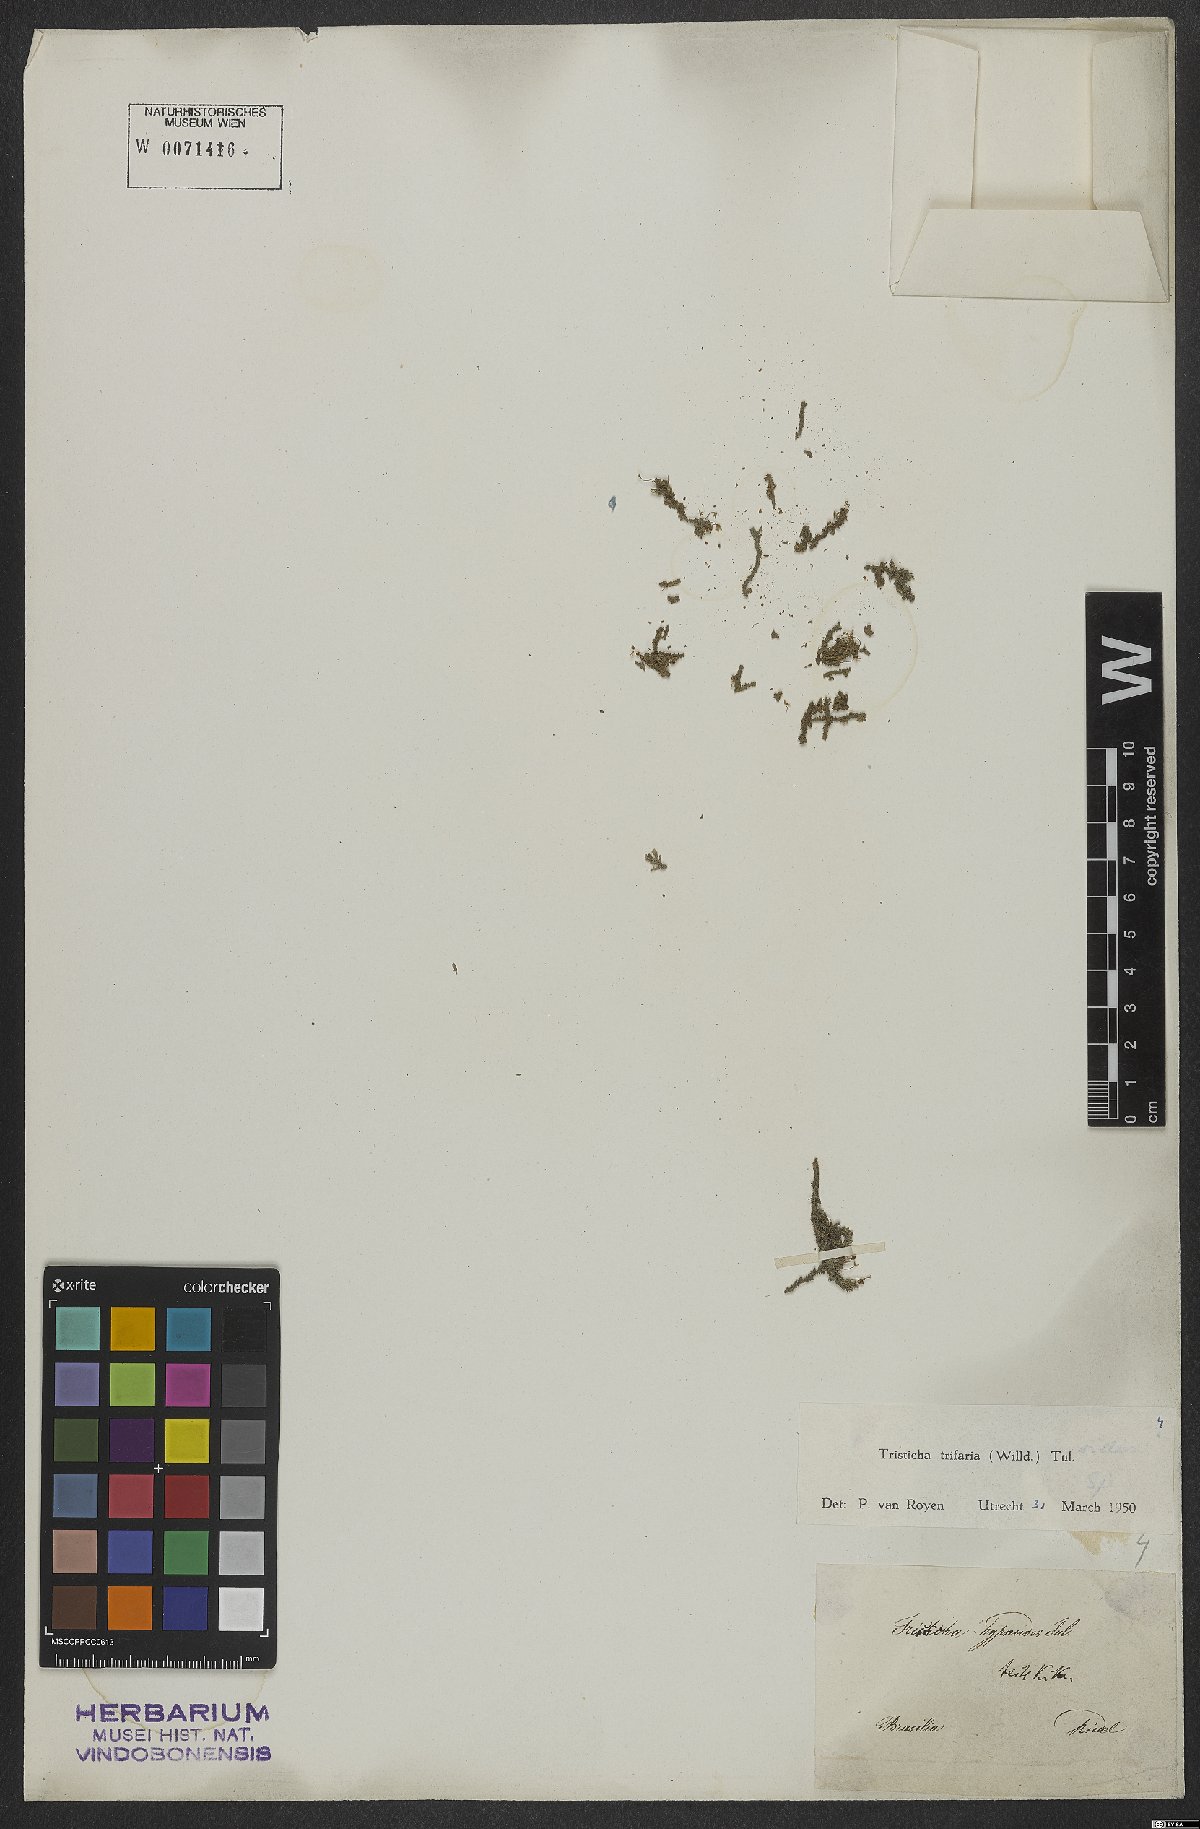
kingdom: Plantae
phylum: Tracheophyta
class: Magnoliopsida
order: Malpighiales
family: Podostemaceae
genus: Tristicha
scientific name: Tristicha trifaria
